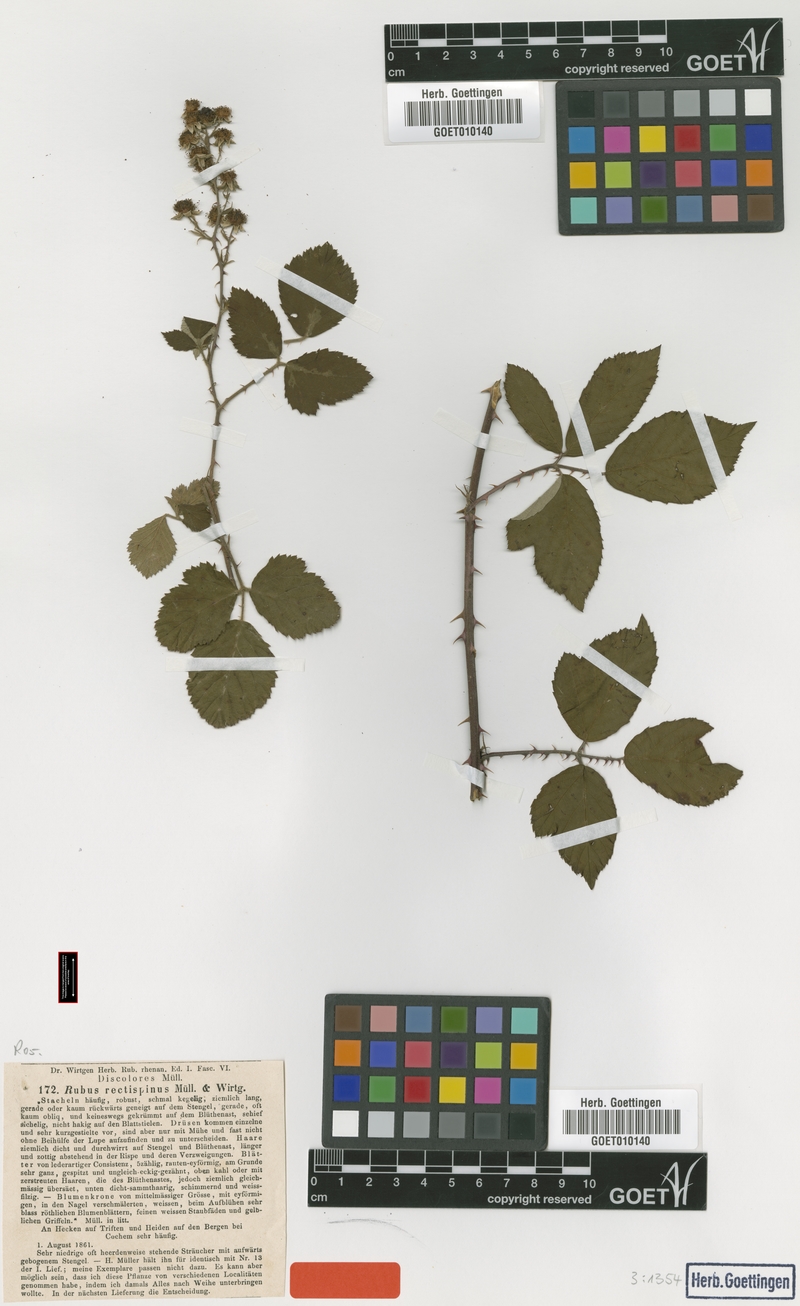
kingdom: Plantae
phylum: Tracheophyta
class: Magnoliopsida
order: Rosales
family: Rosaceae
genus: Rubus
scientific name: Rubus rectispinus
